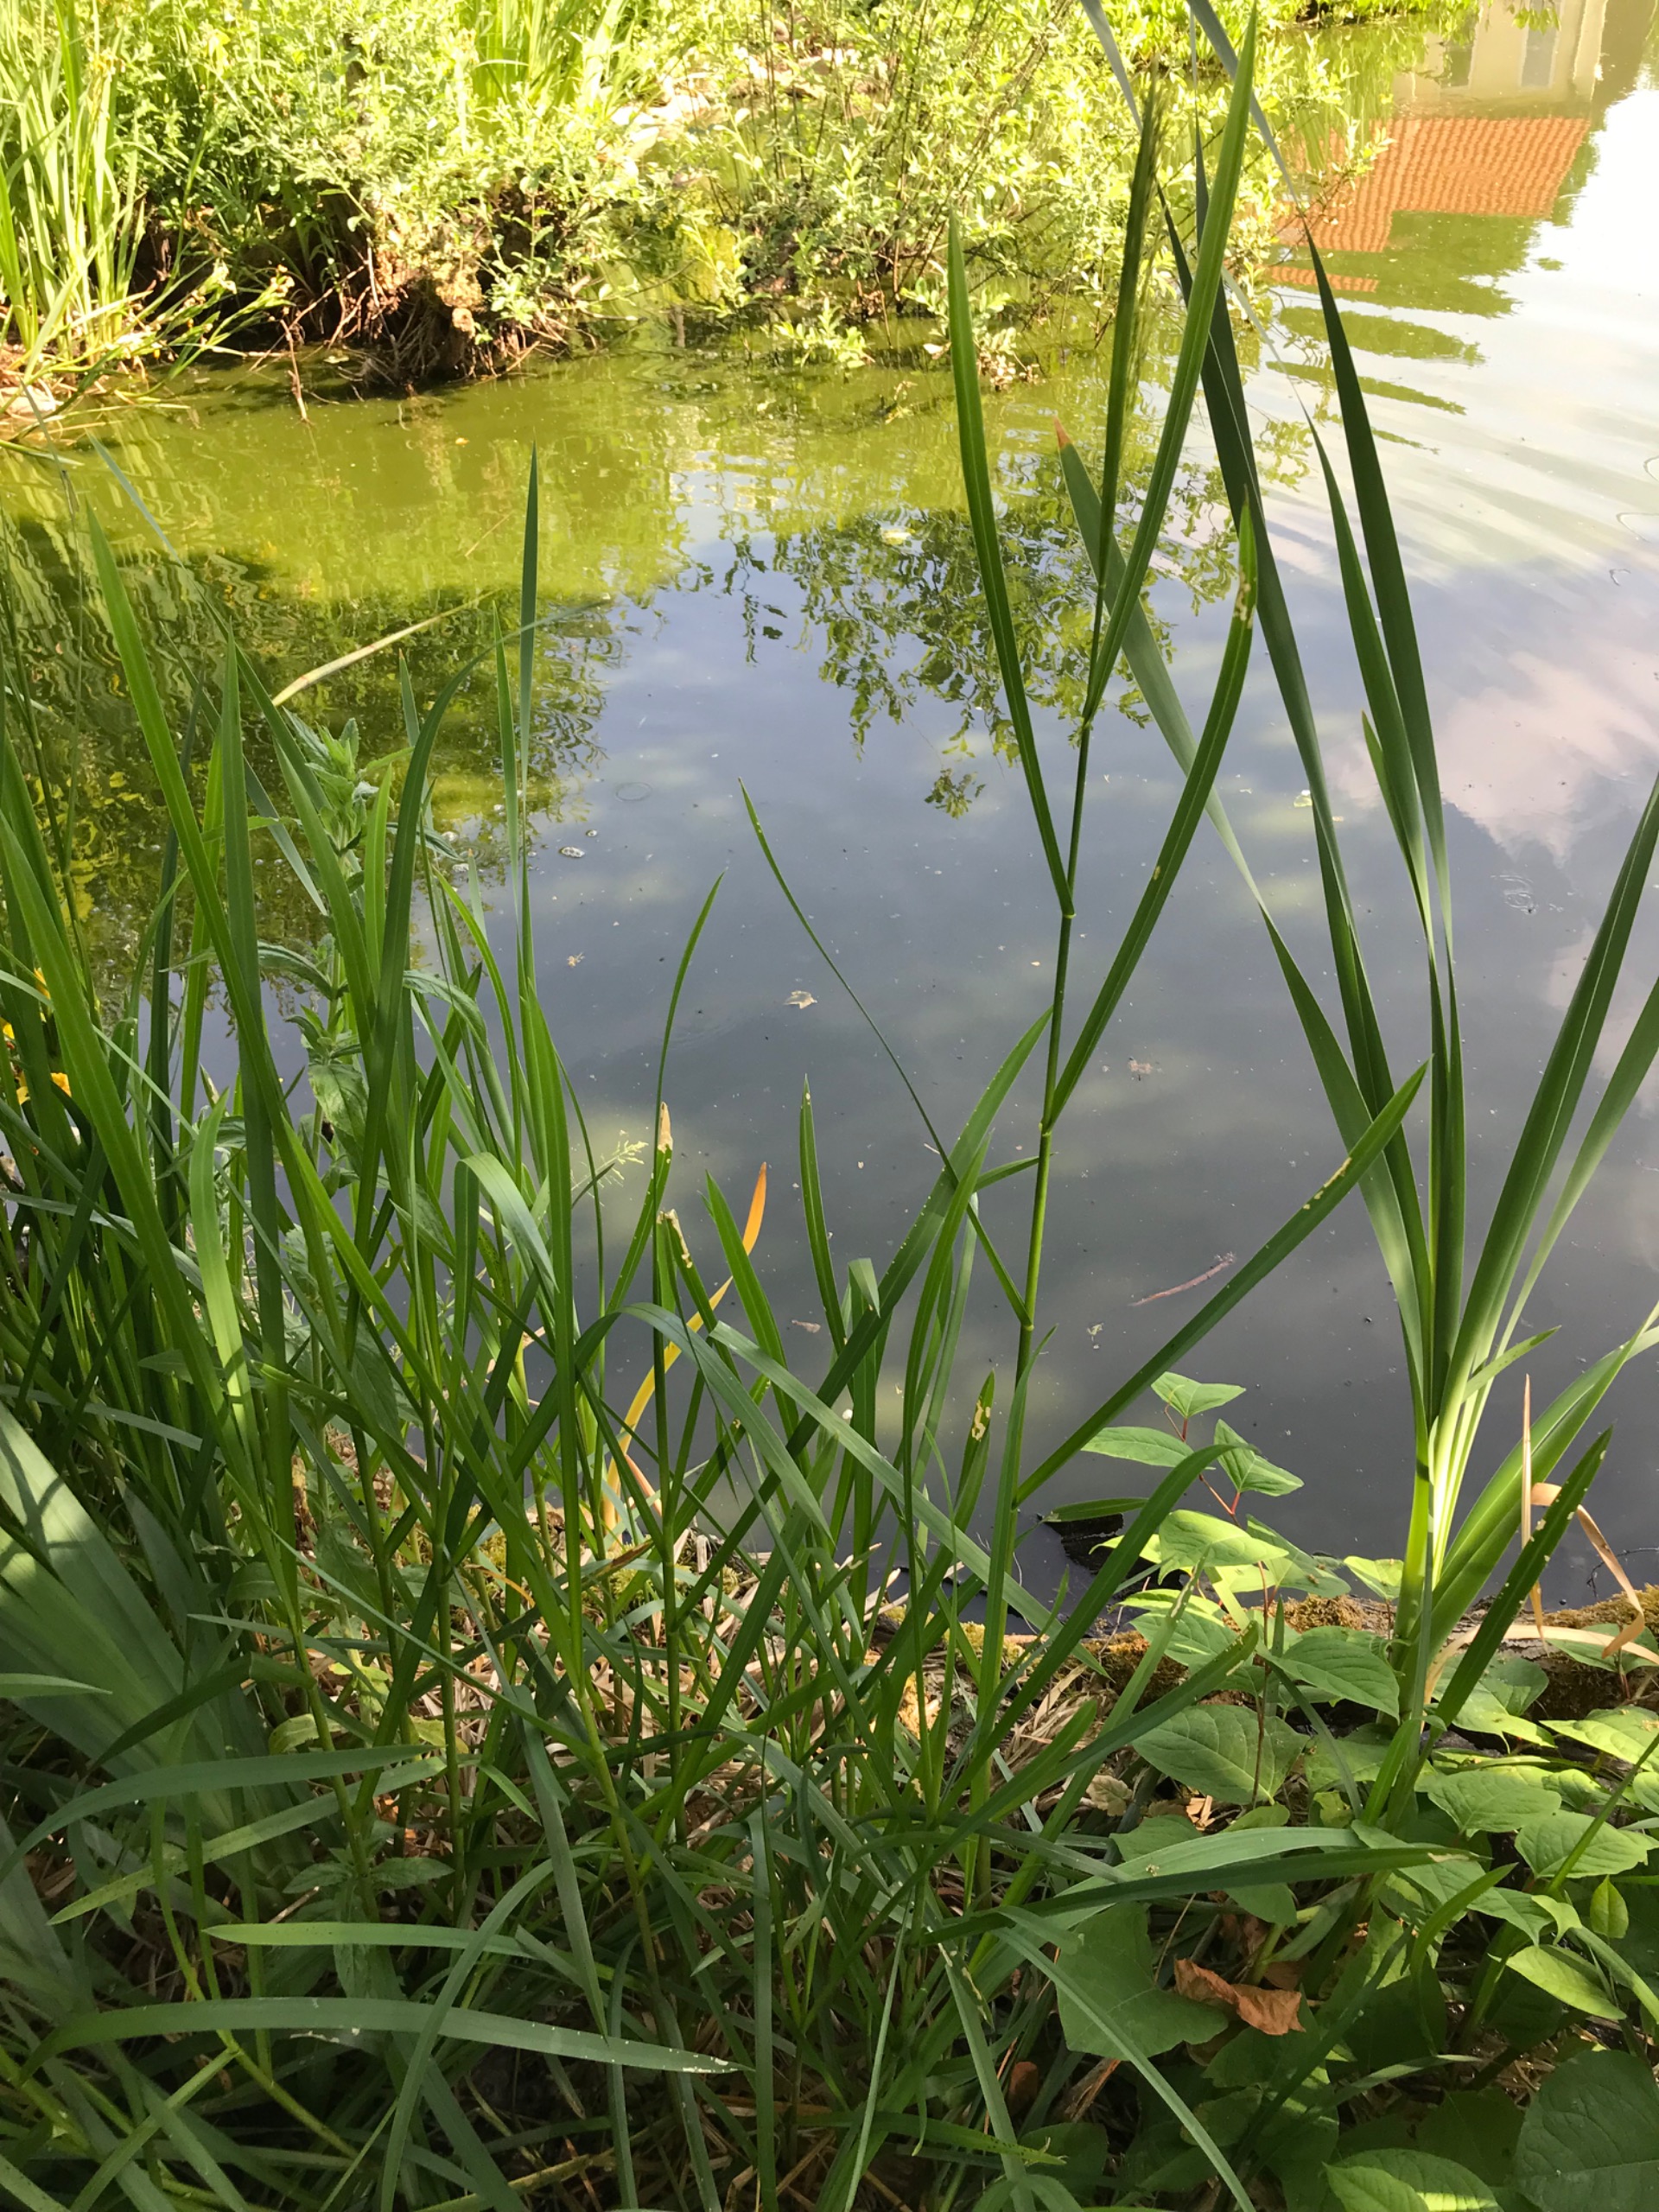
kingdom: Plantae
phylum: Tracheophyta
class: Liliopsida
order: Poales
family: Poaceae
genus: Glyceria
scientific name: Glyceria maxima
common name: Høj sødgræs
